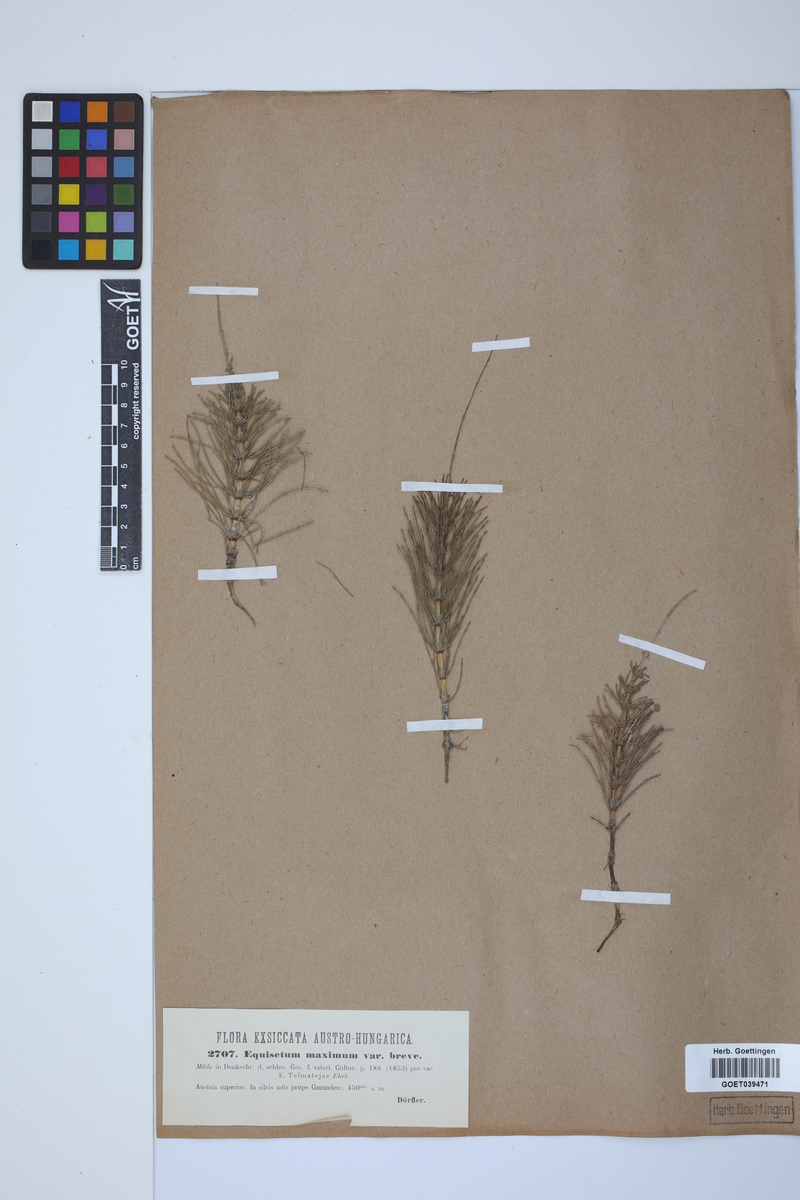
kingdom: Plantae
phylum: Tracheophyta
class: Polypodiopsida
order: Equisetales
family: Equisetaceae
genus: Equisetum
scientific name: Equisetum telmateia
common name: Great horsetail
